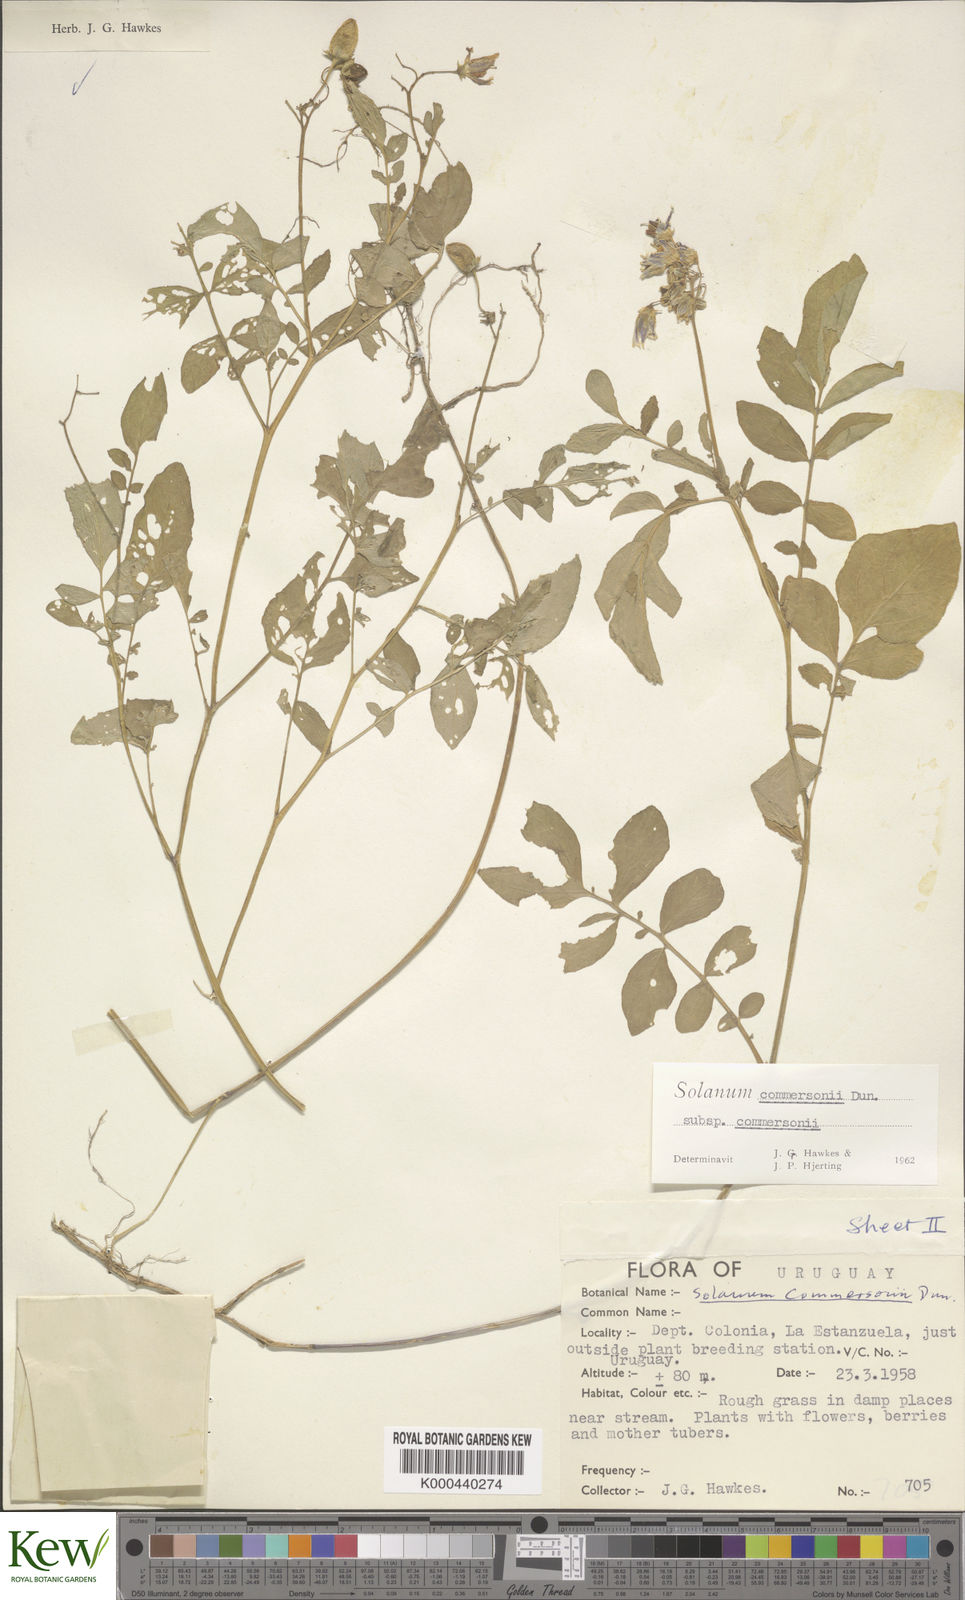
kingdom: Plantae
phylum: Tracheophyta
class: Magnoliopsida
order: Solanales
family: Solanaceae
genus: Solanum
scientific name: Solanum commersonii
